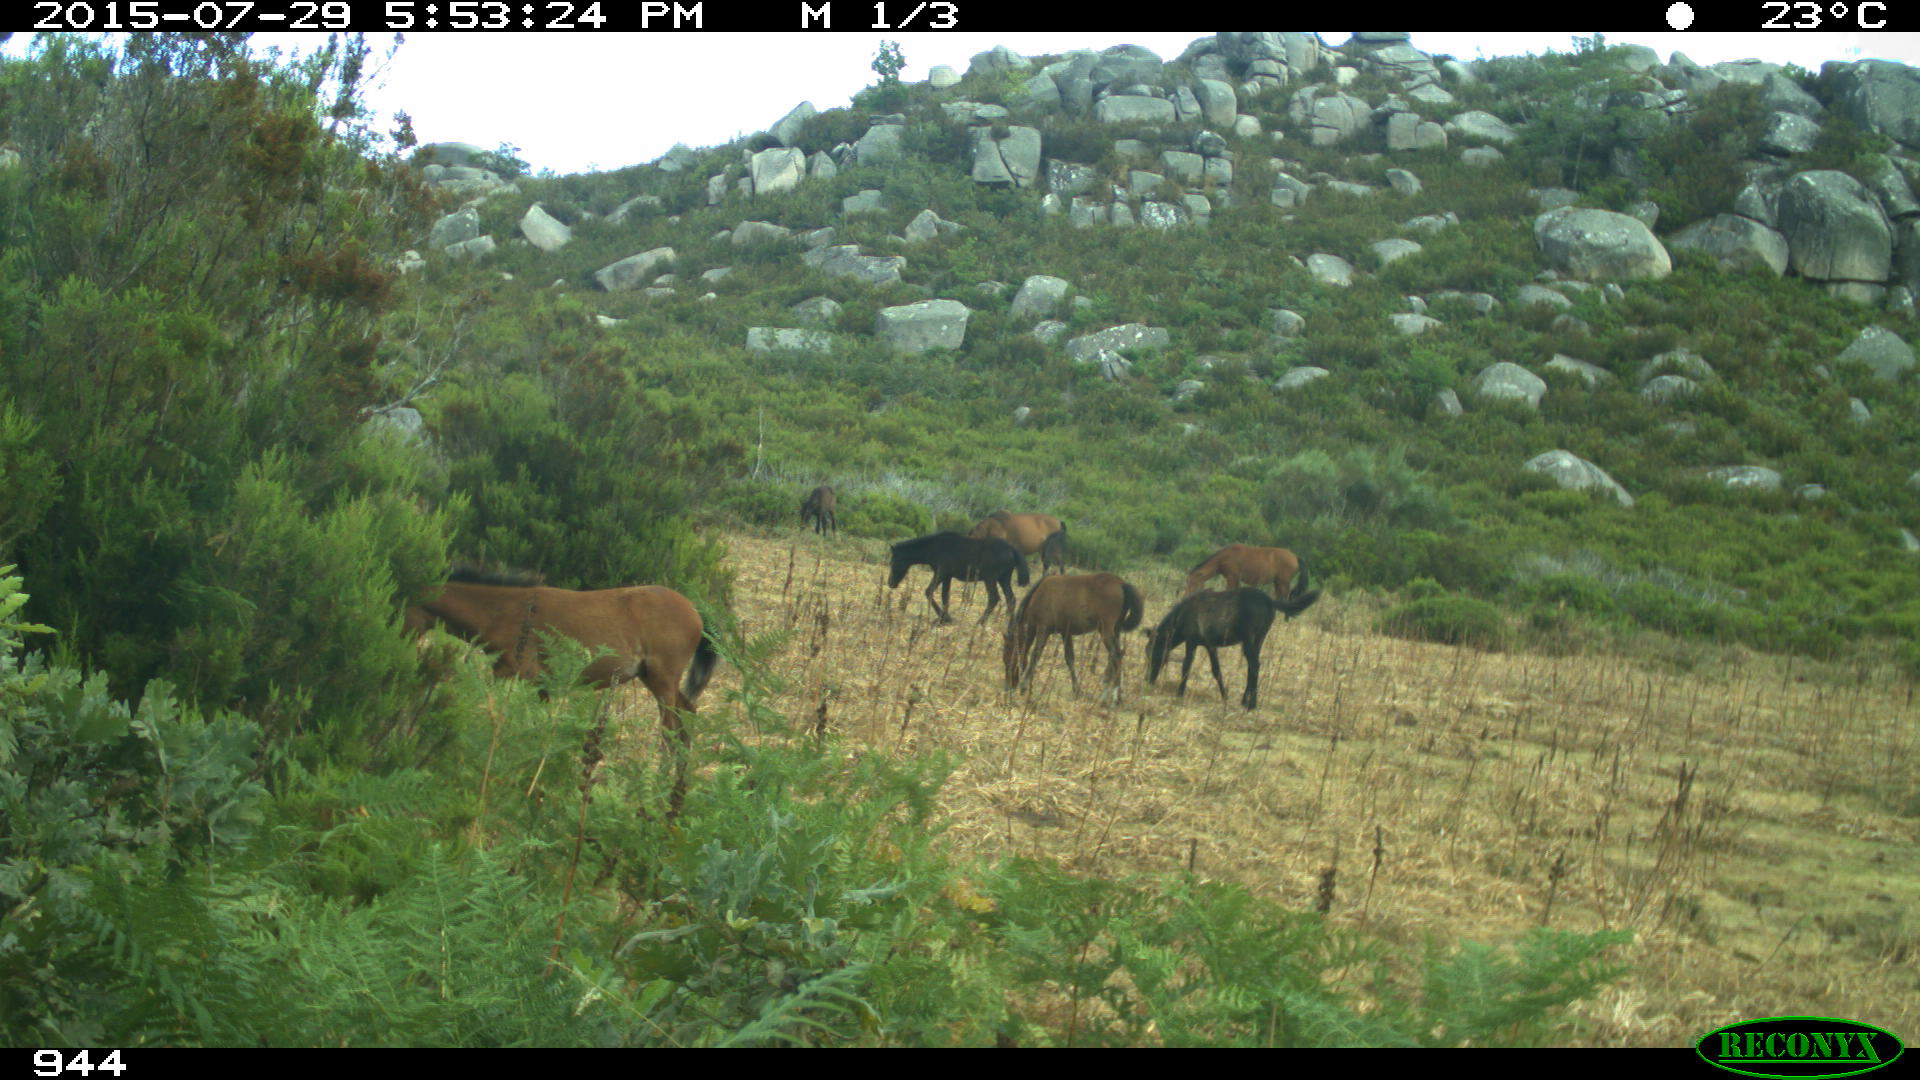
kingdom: Animalia
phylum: Chordata
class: Mammalia
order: Perissodactyla
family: Equidae
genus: Equus
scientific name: Equus caballus
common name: Horse
